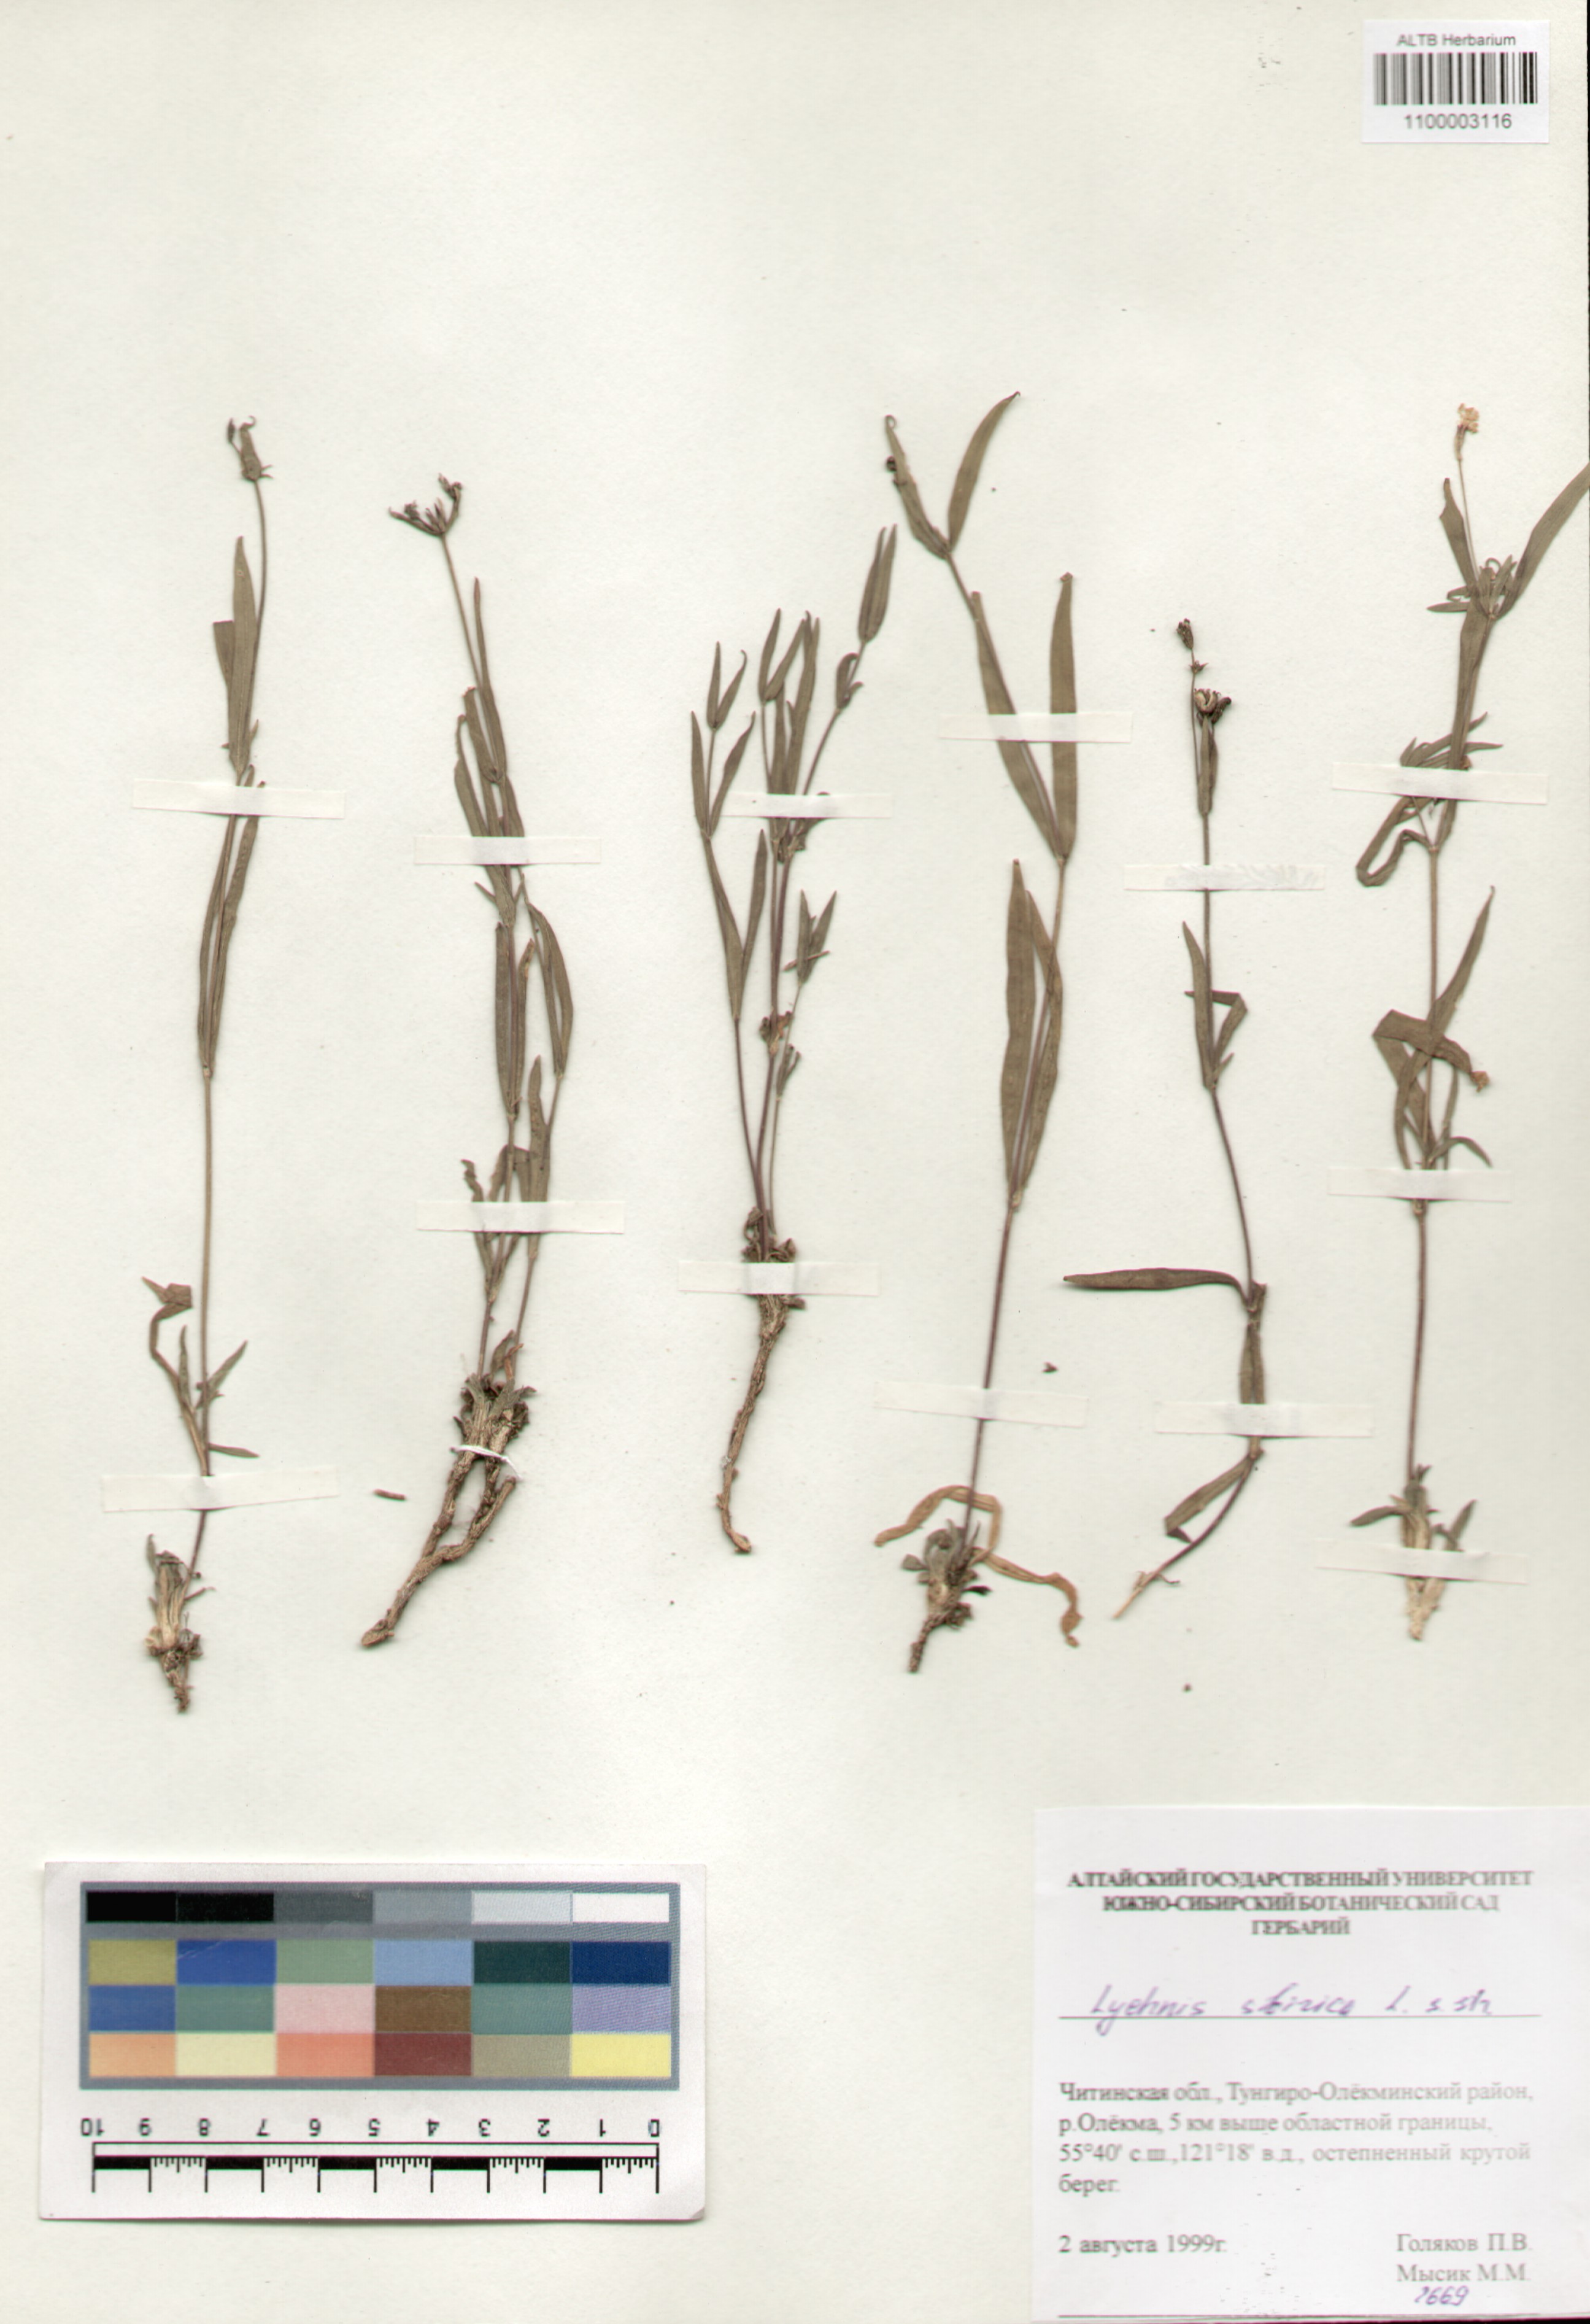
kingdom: Plantae
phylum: Tracheophyta
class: Magnoliopsida
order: Caryophyllales
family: Caryophyllaceae
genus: Silene
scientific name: Silene orientalimongolica
